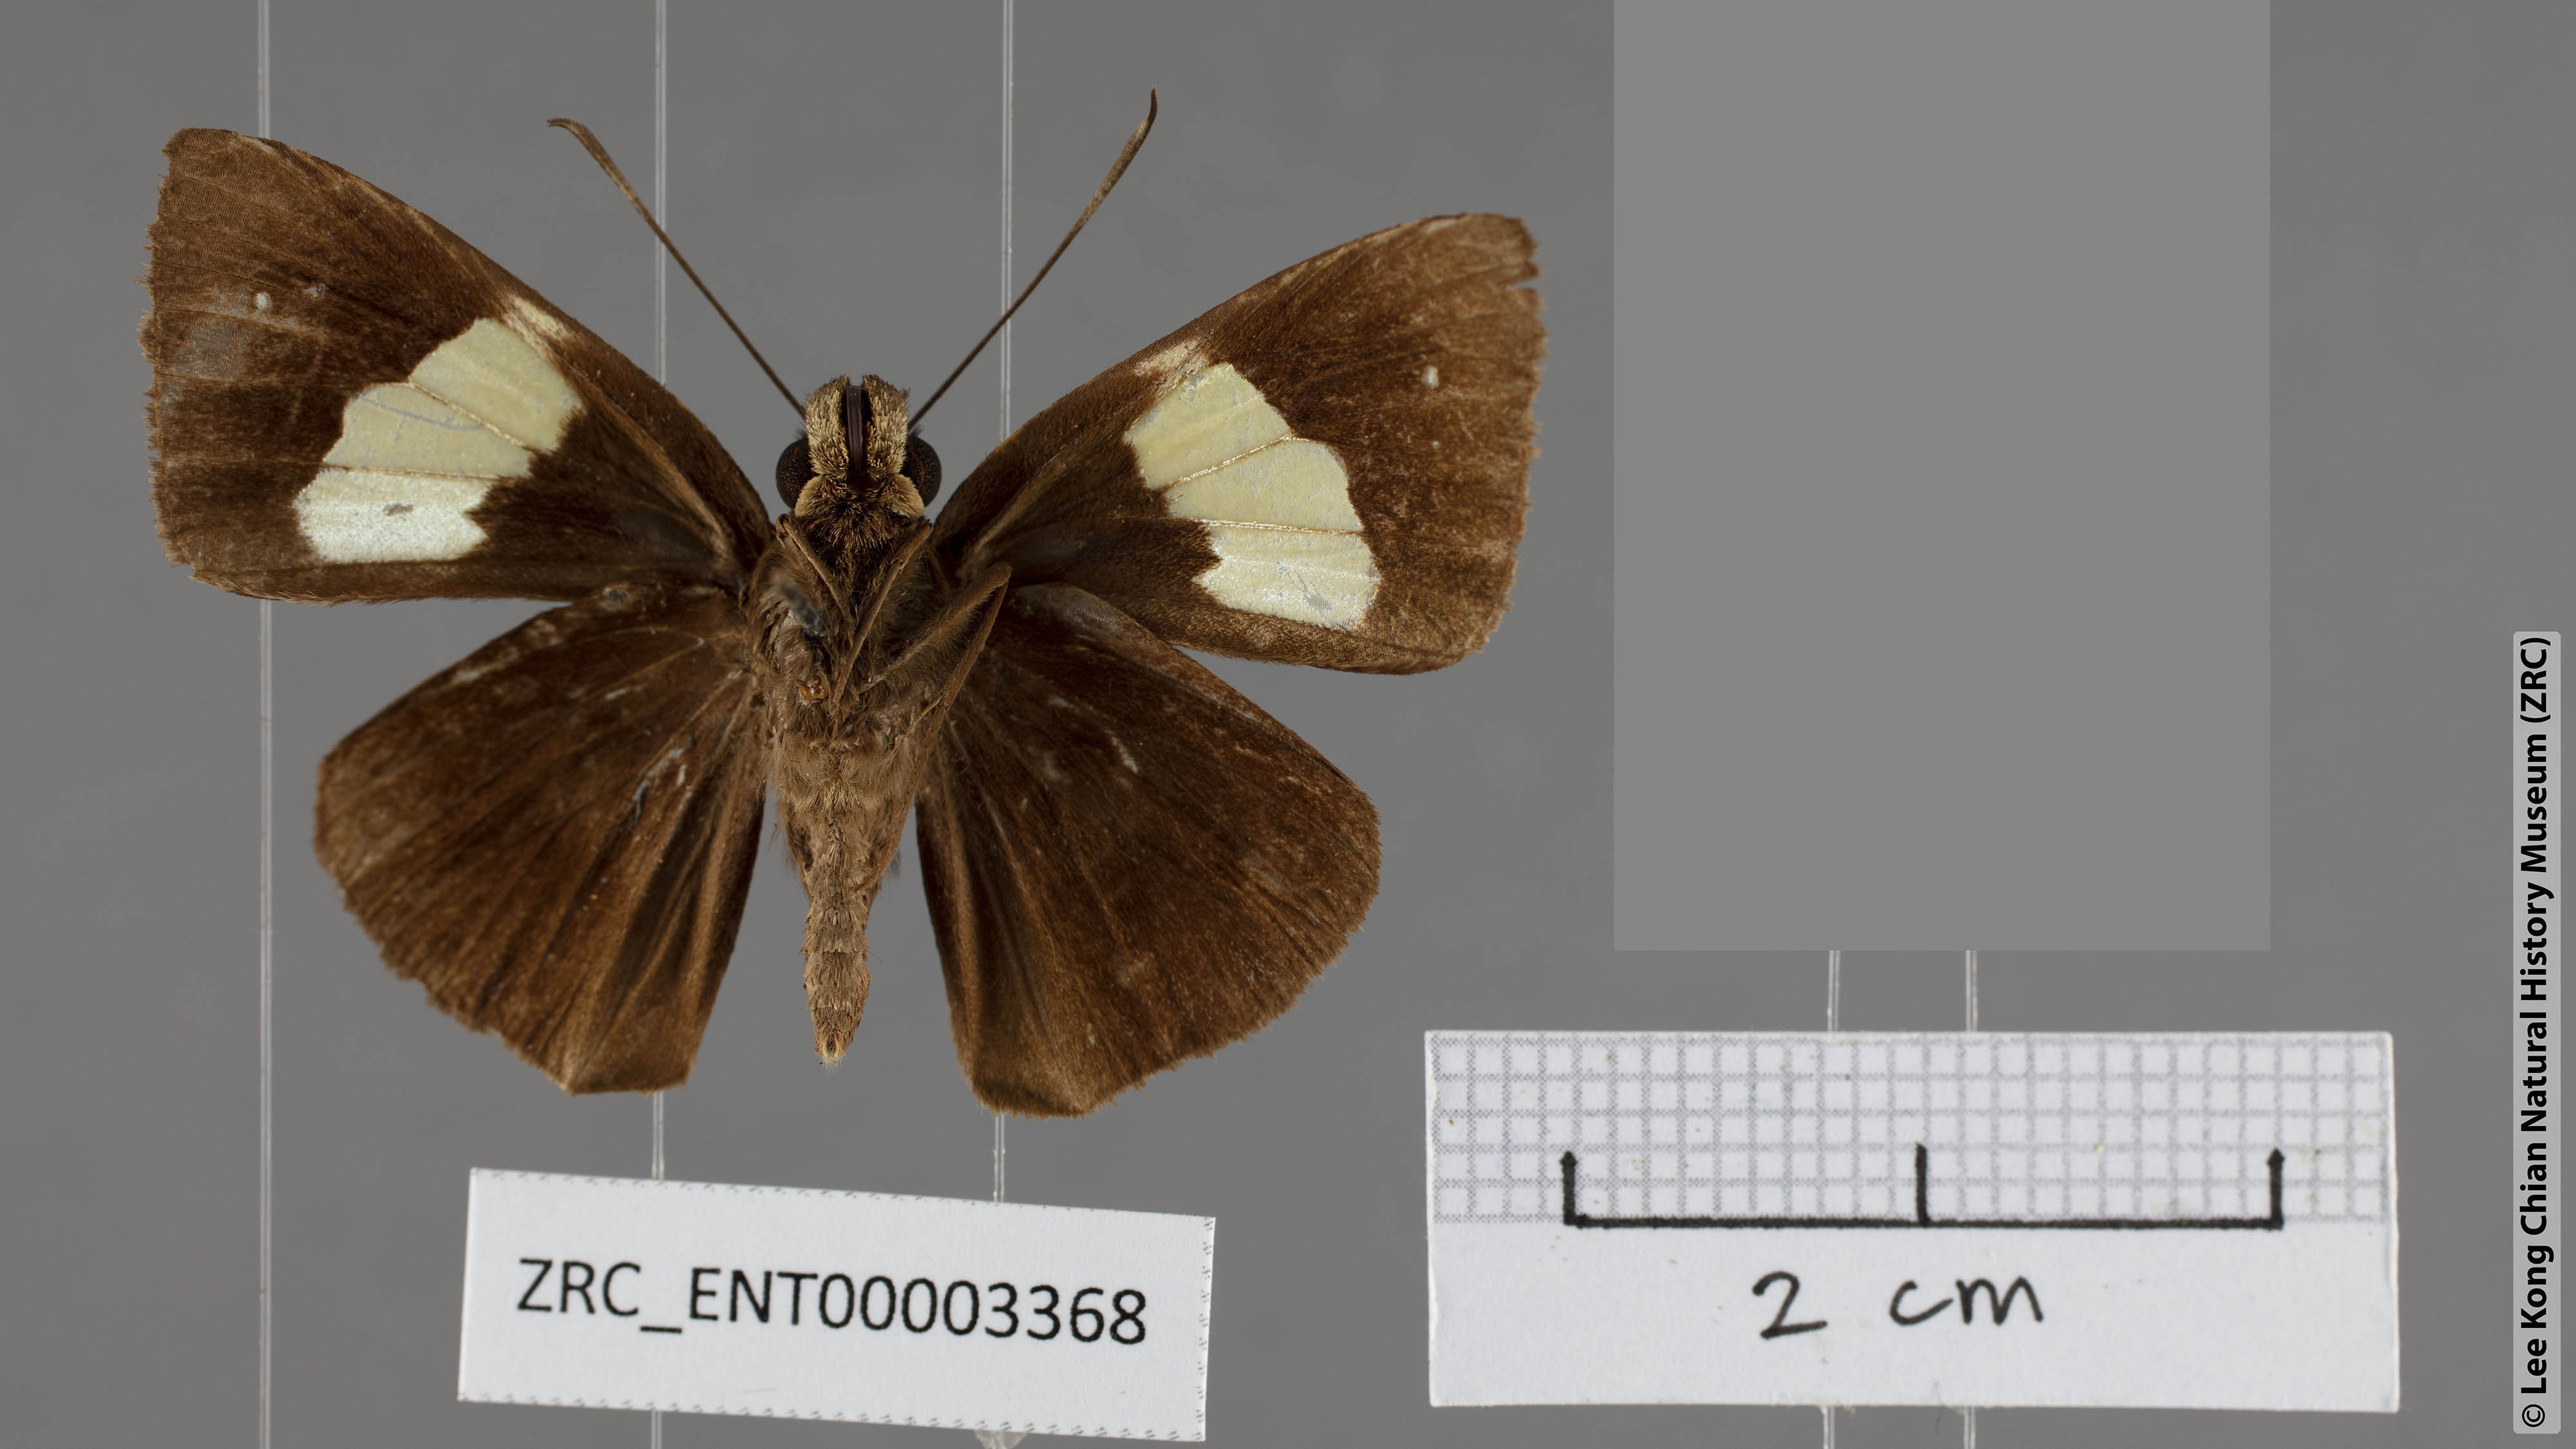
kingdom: Animalia
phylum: Arthropoda
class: Insecta
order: Lepidoptera
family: Hesperiidae
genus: Notocrypta
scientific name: Notocrypta quadrata
